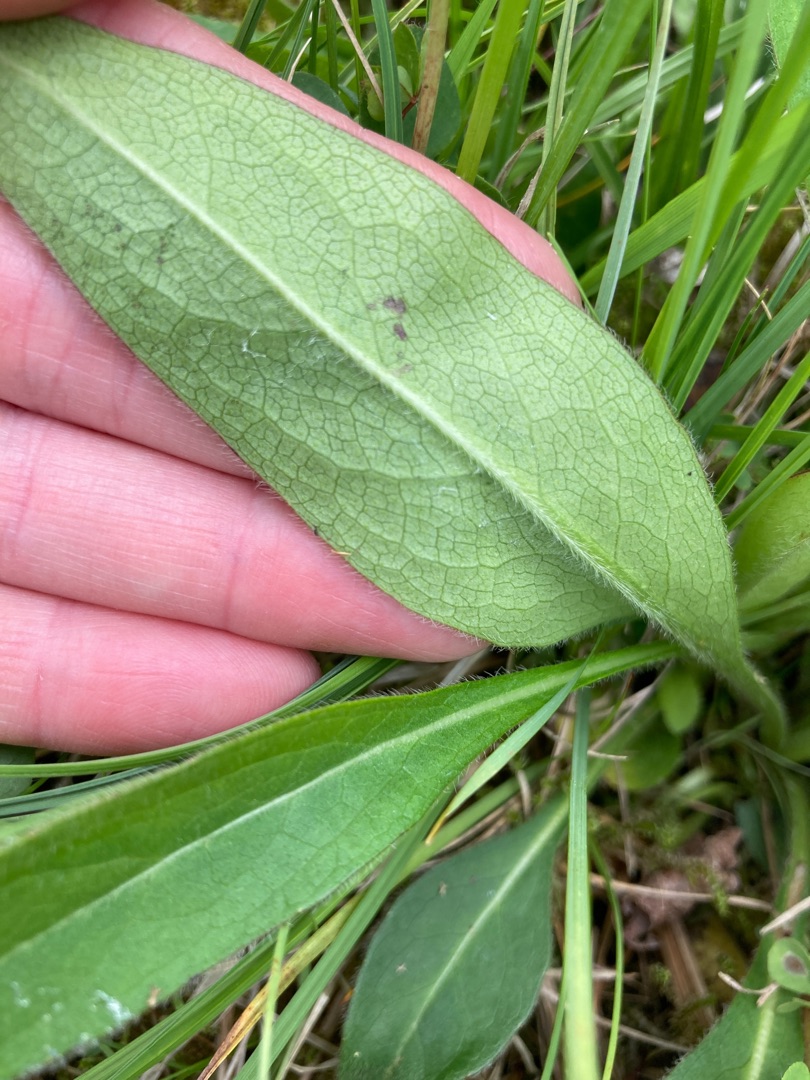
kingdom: Plantae
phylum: Tracheophyta
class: Magnoliopsida
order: Dipsacales
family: Caprifoliaceae
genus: Succisa
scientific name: Succisa pratensis
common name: Djævelsbid
